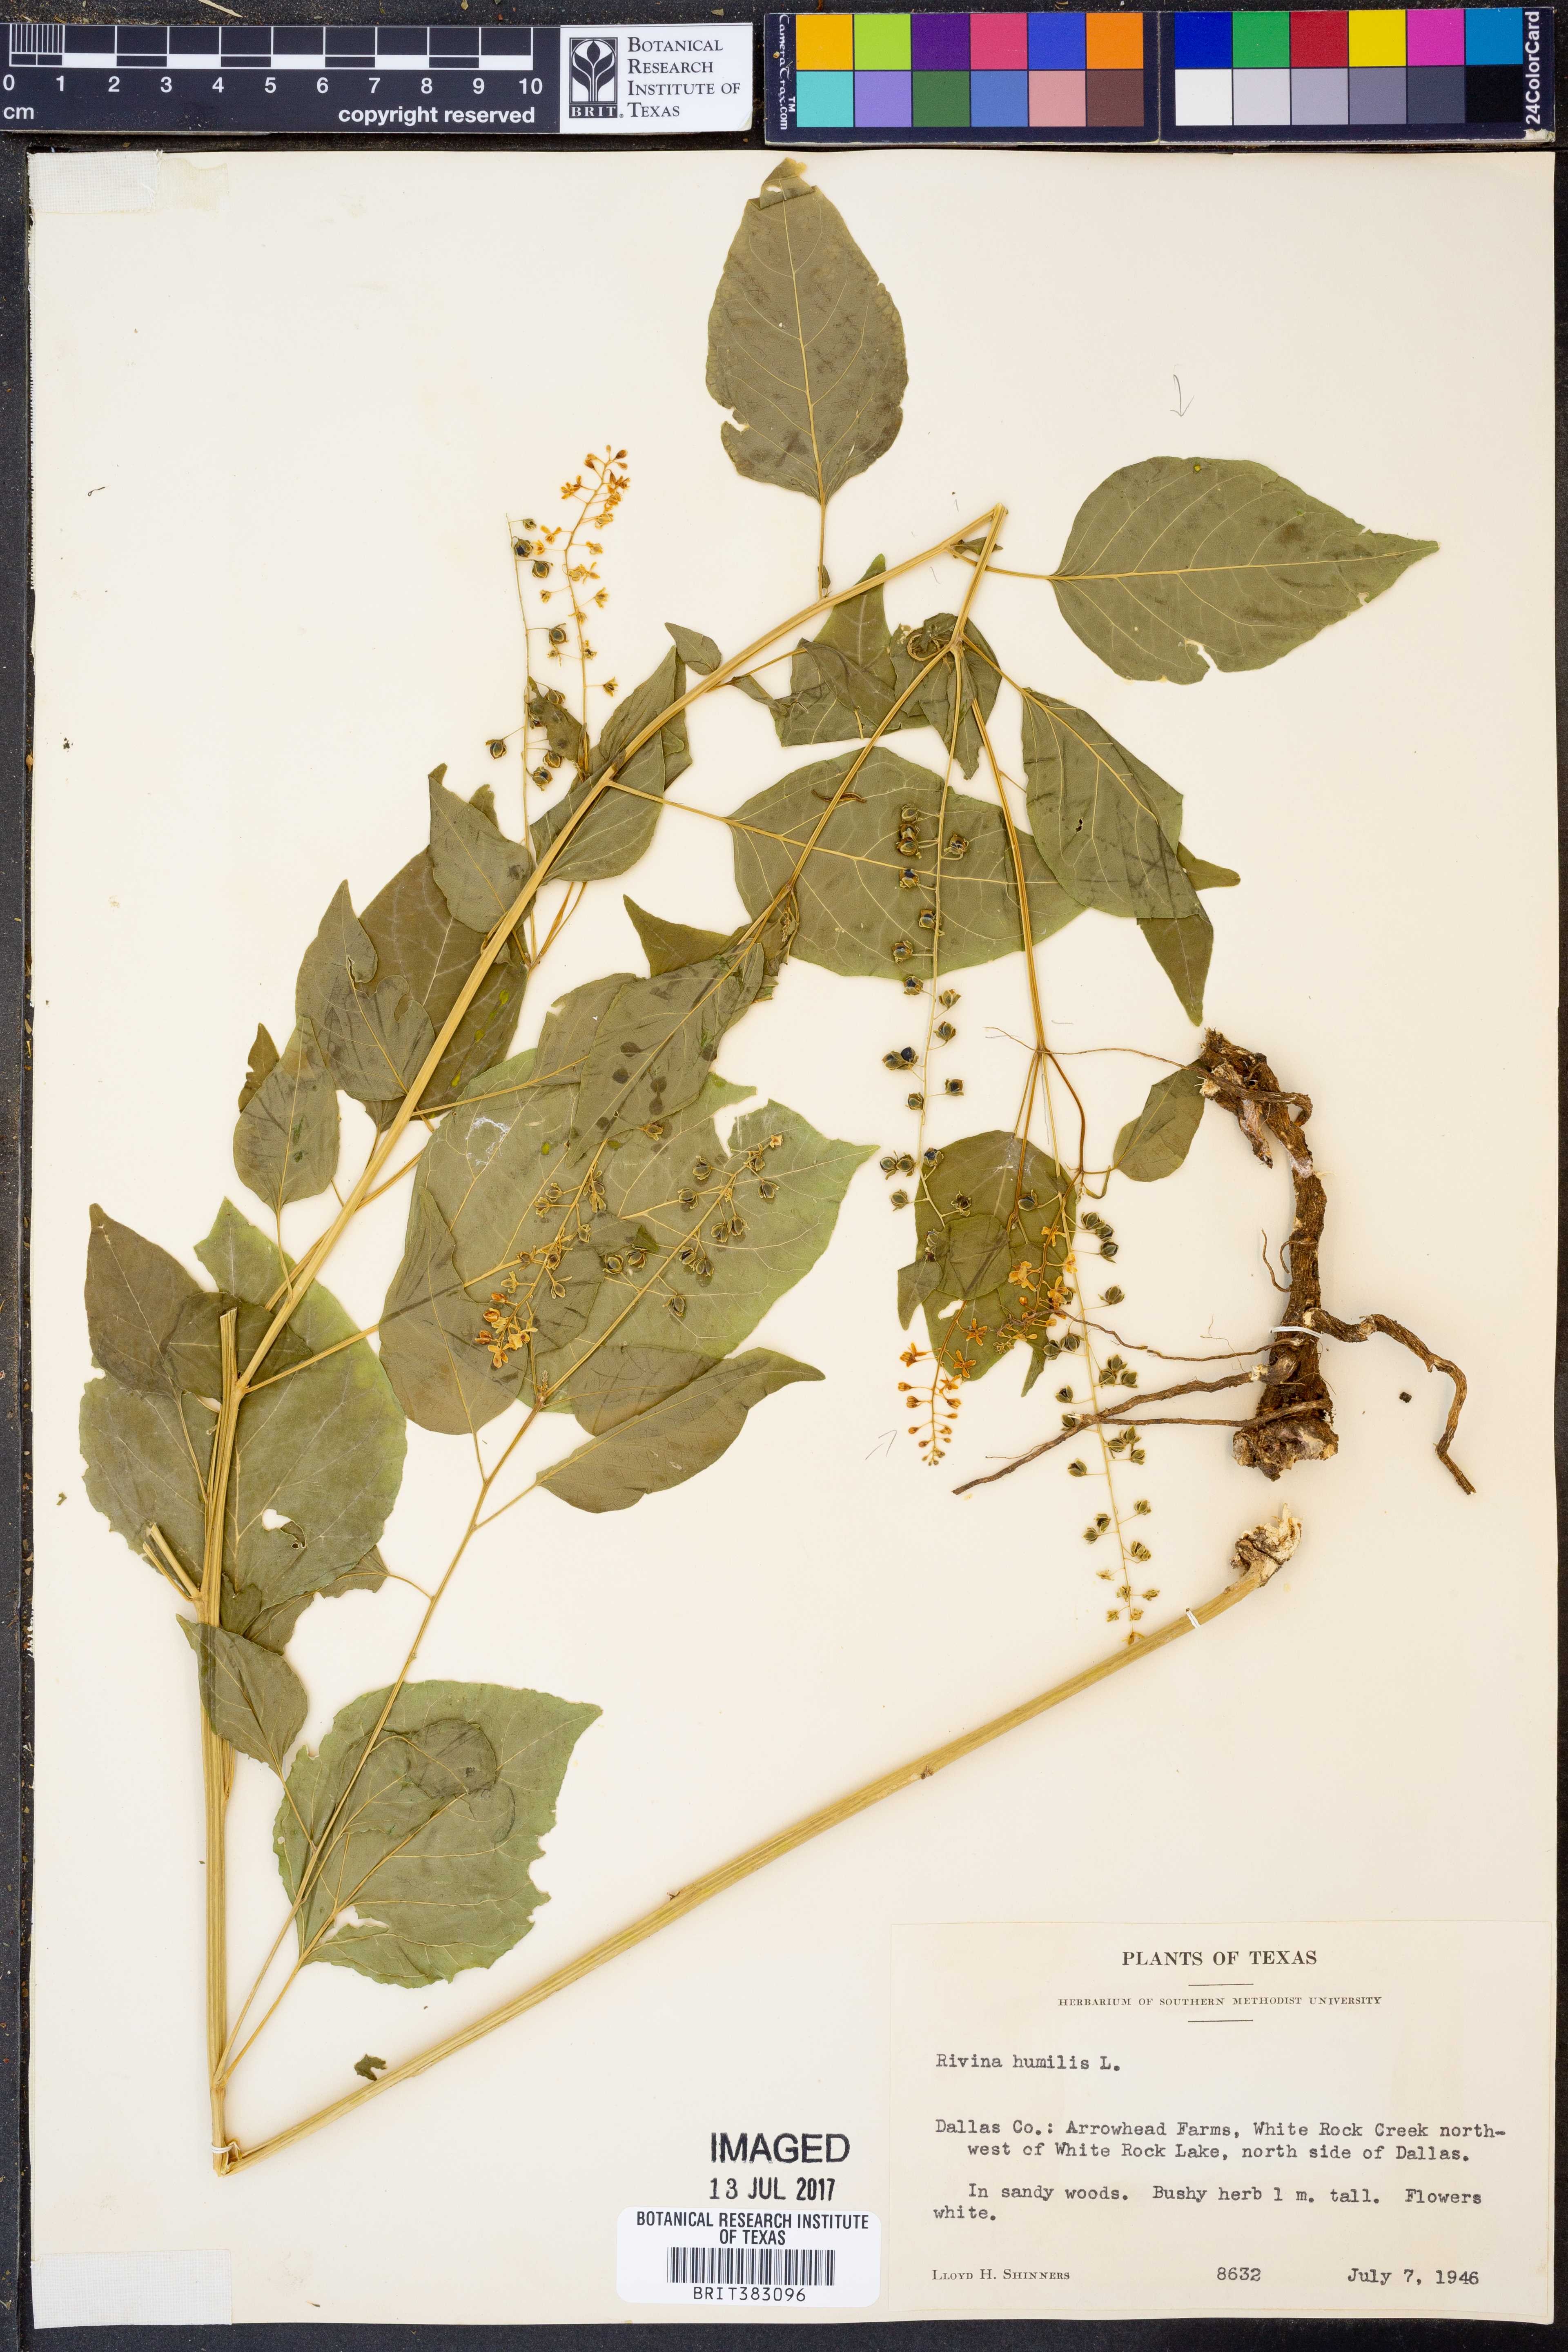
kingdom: Plantae
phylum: Tracheophyta
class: Magnoliopsida
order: Caryophyllales
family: Phytolaccaceae
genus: Rivina
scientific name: Rivina humilis
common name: Rougeplant
